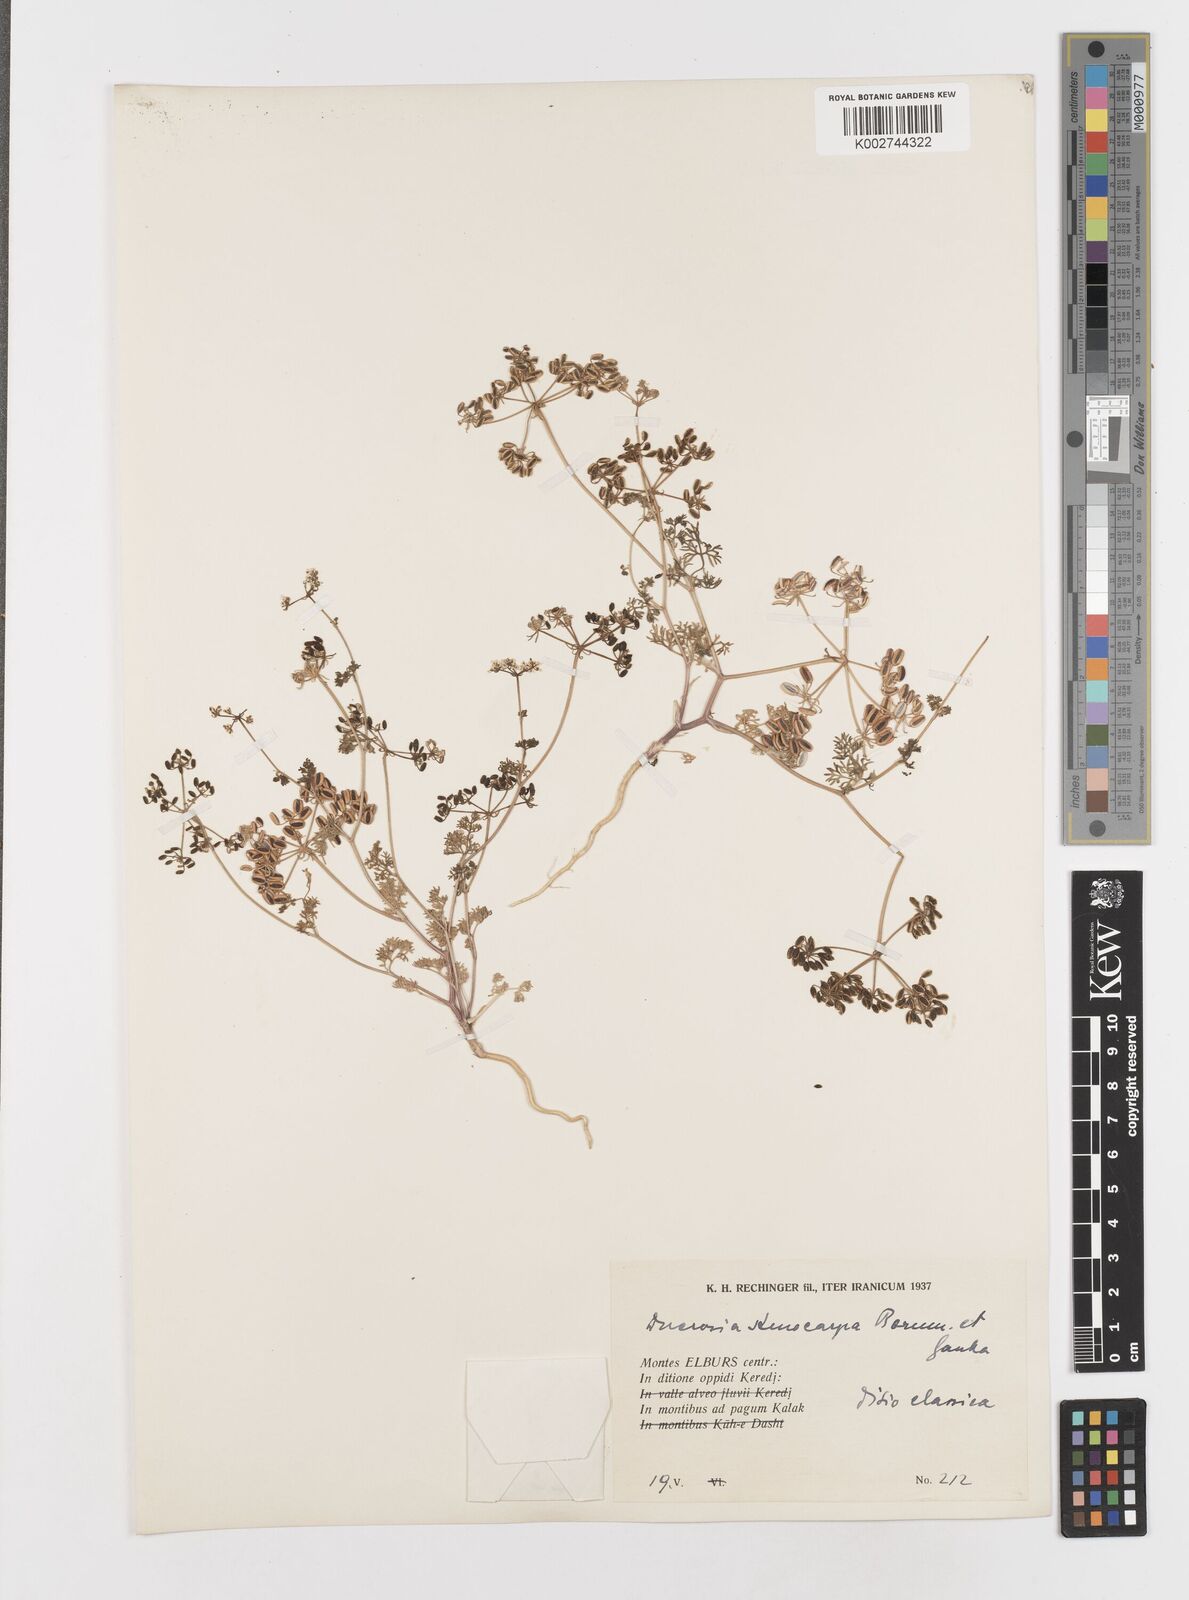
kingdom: Plantae
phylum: Tracheophyta
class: Magnoliopsida
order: Apiales
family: Apiaceae
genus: Kalakia
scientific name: Kalakia marginata
